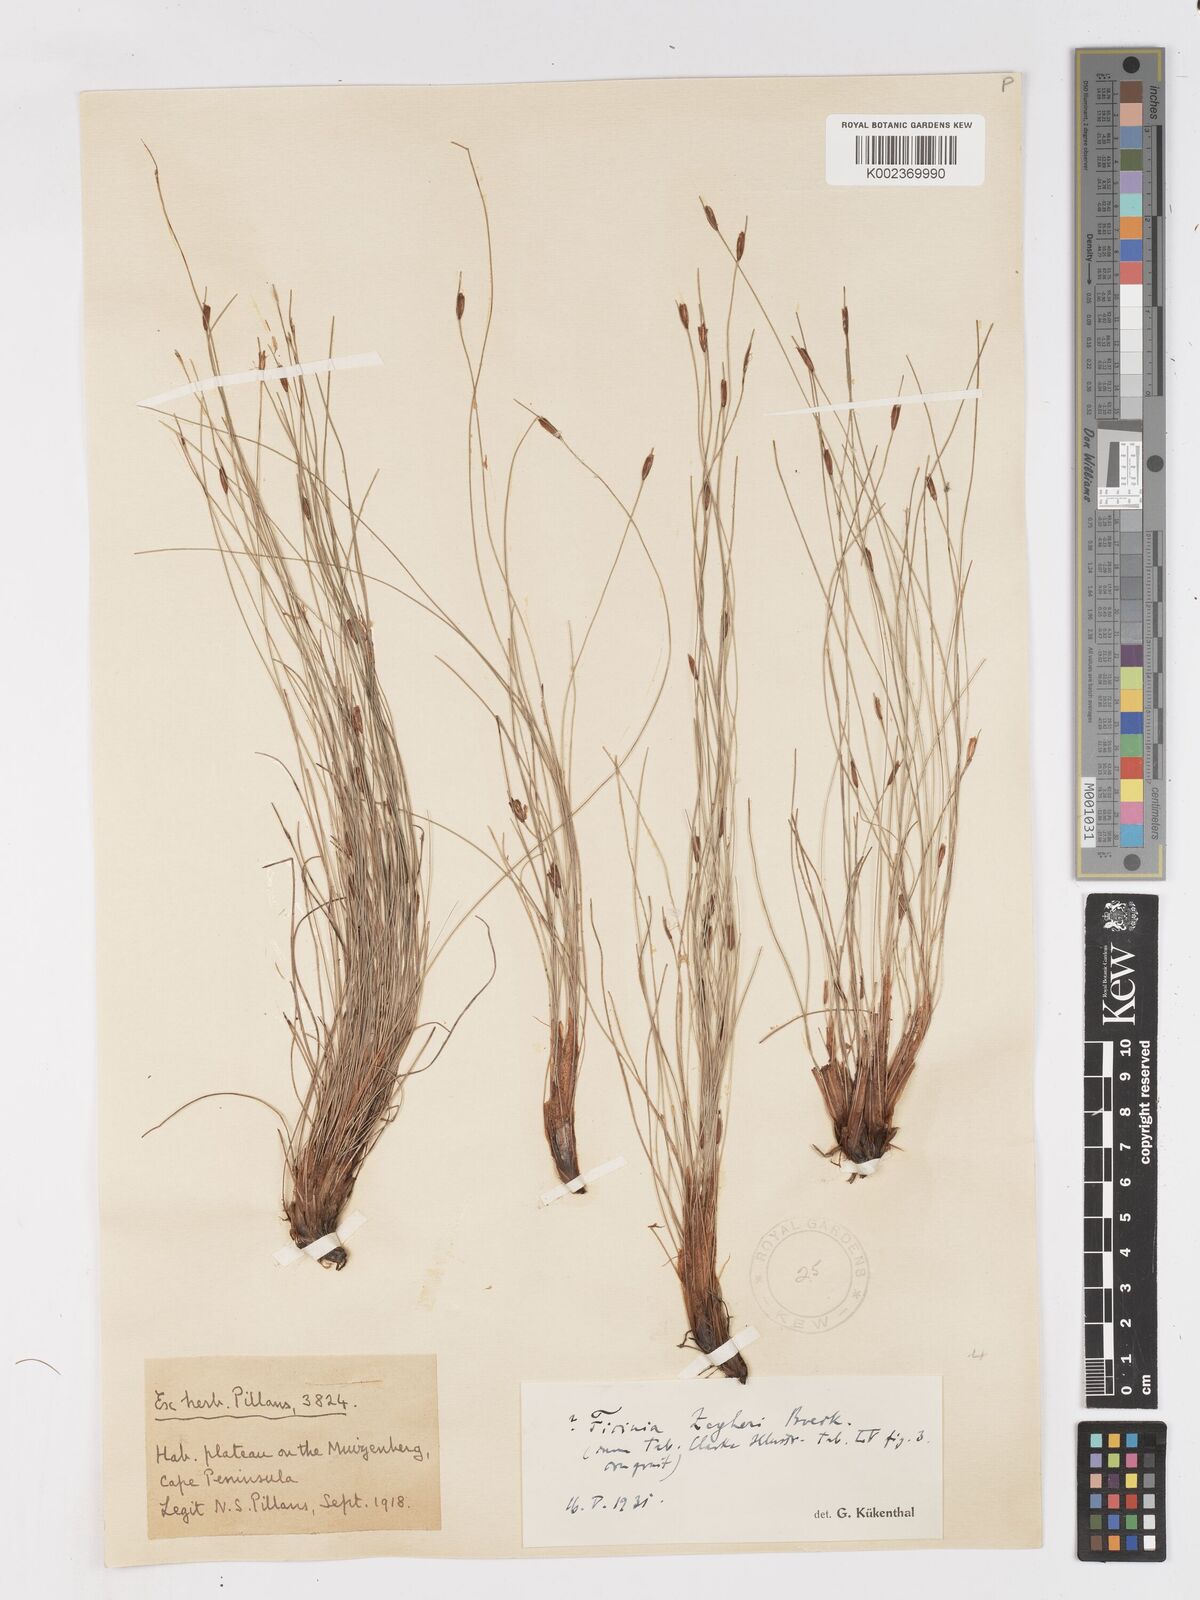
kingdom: Plantae
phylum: Tracheophyta
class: Liliopsida
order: Poales
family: Cyperaceae
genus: Ficinia
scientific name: Ficinia zeyheri
